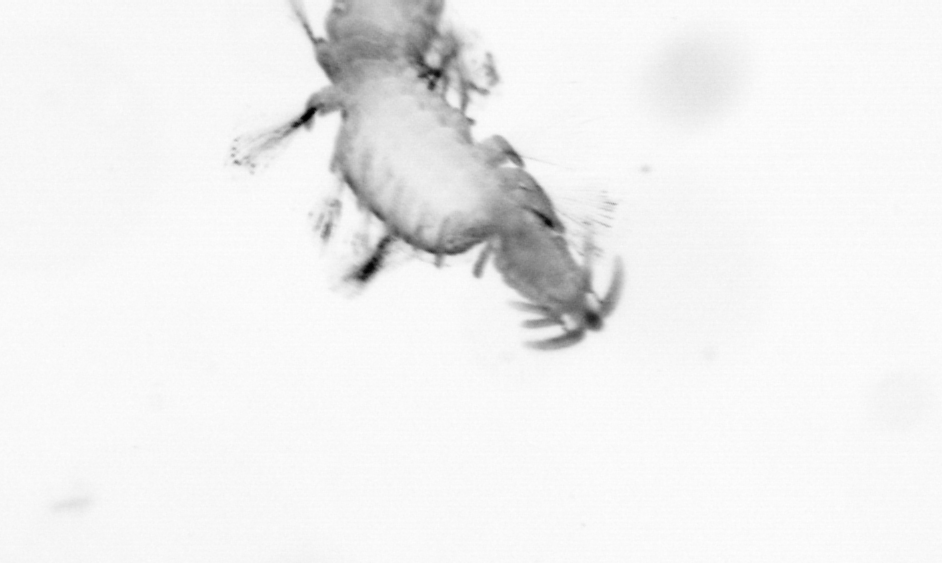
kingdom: Animalia
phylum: Annelida
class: Polychaeta
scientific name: Polychaeta
